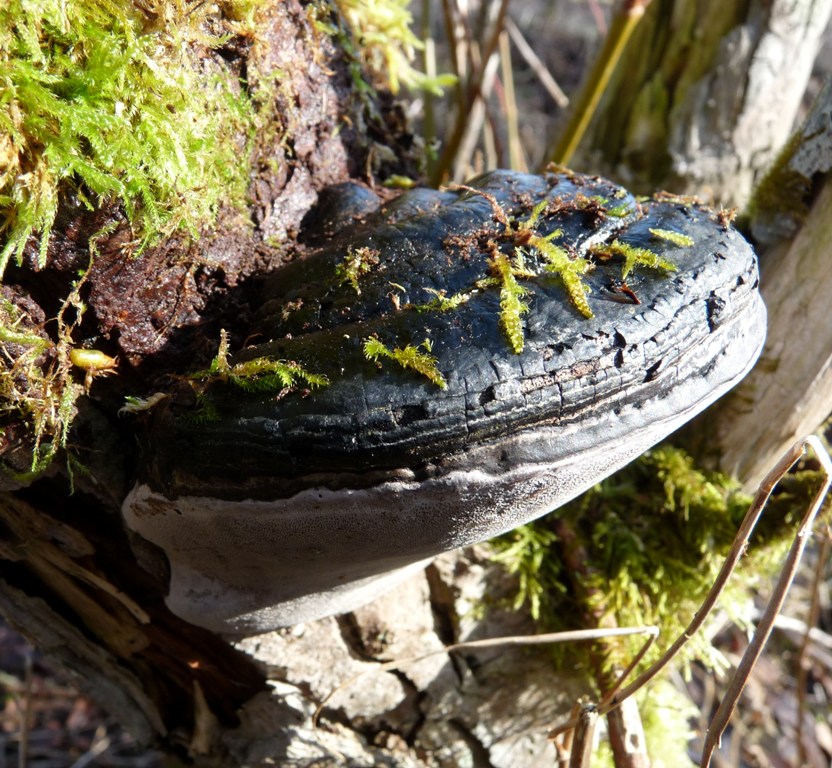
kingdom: Fungi
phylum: Basidiomycota
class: Agaricomycetes
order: Hymenochaetales
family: Hymenochaetaceae
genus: Phellinus
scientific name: Phellinus igniarius
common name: almindelig ildporesvamp
